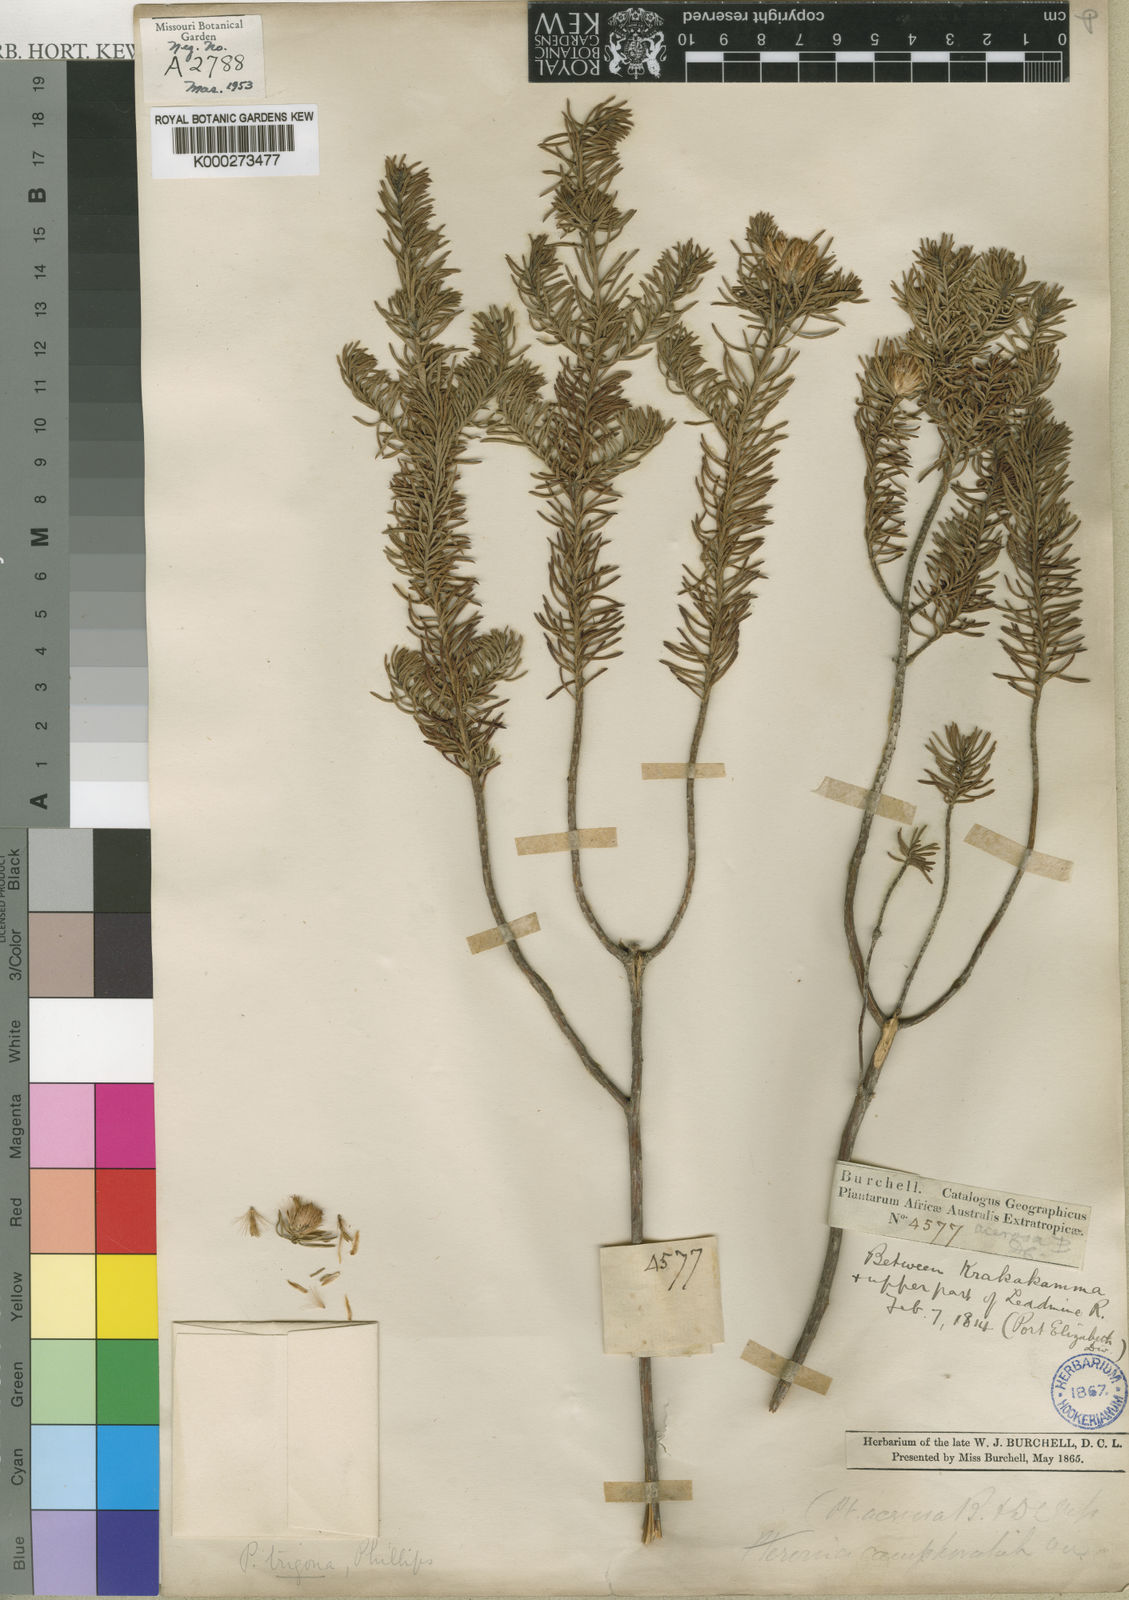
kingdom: Plantae
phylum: Tracheophyta
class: Magnoliopsida
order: Asterales
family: Asteraceae
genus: Pteronia
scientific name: Pteronia teretifolia
